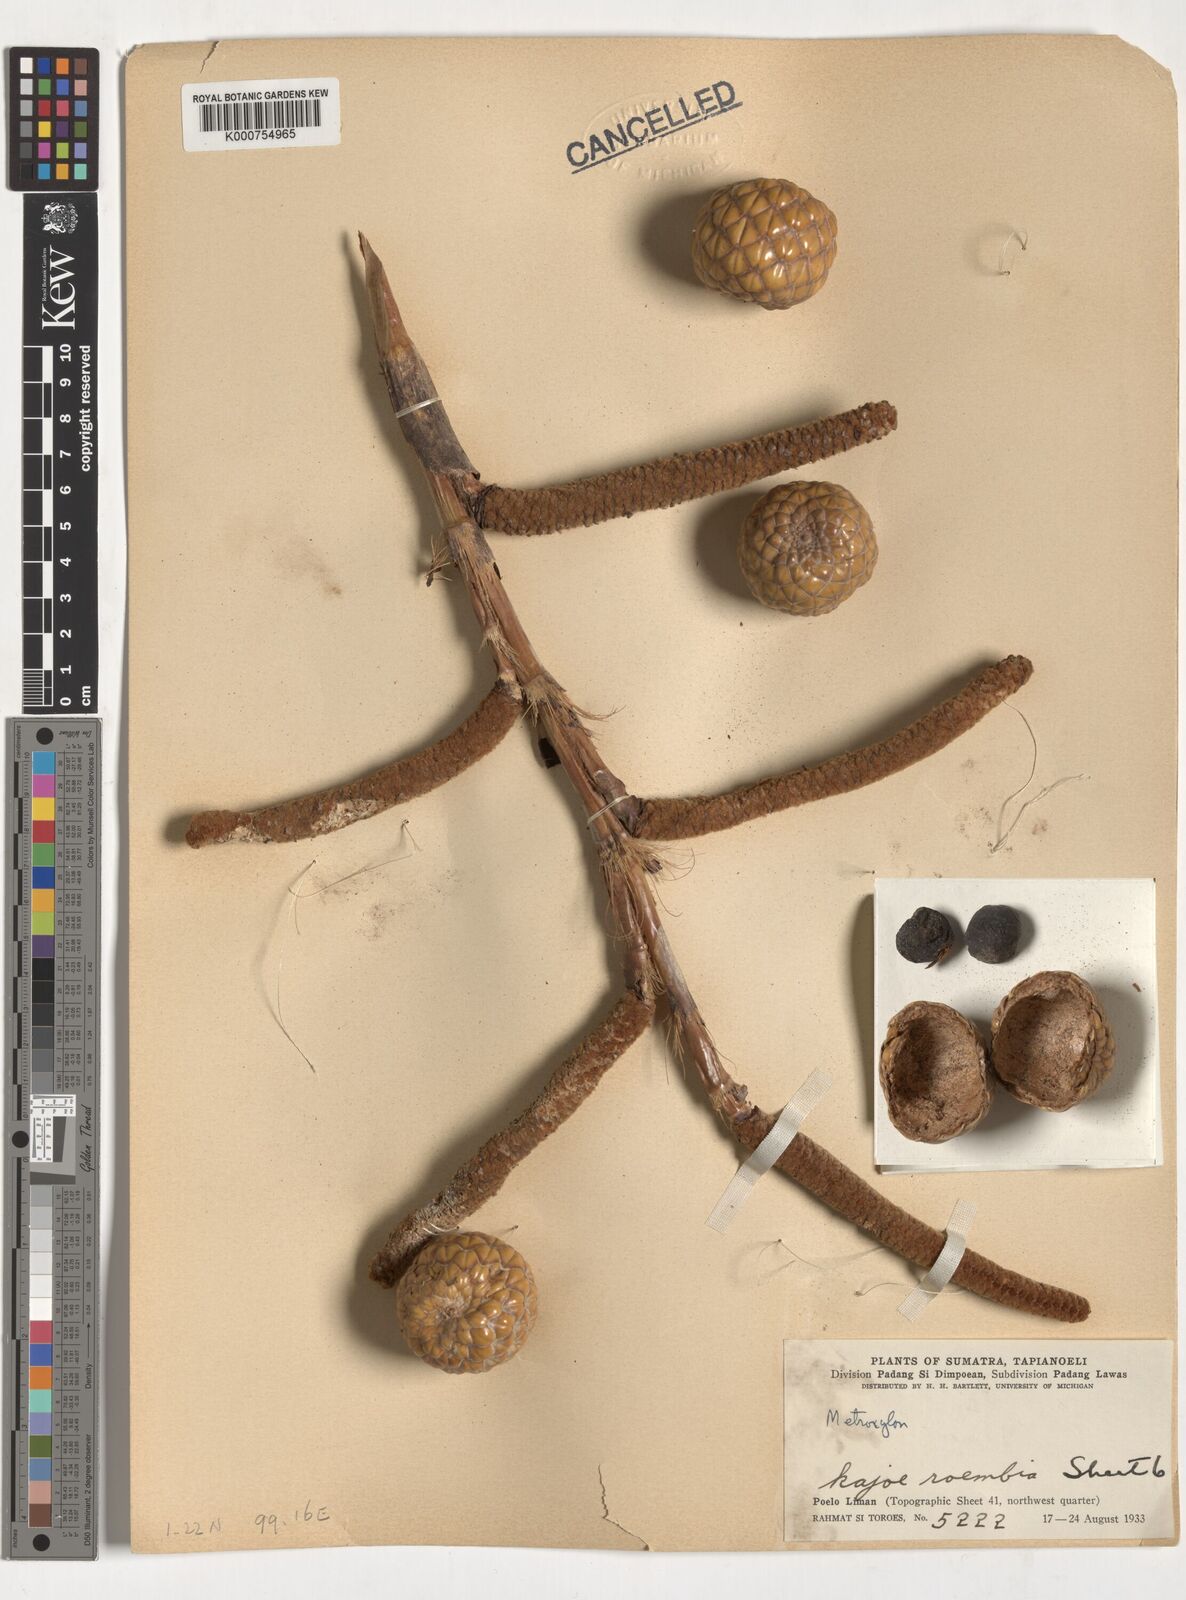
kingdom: Plantae
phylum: Tracheophyta
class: Liliopsida
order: Arecales
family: Arecaceae
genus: Metroxylon
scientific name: Metroxylon
